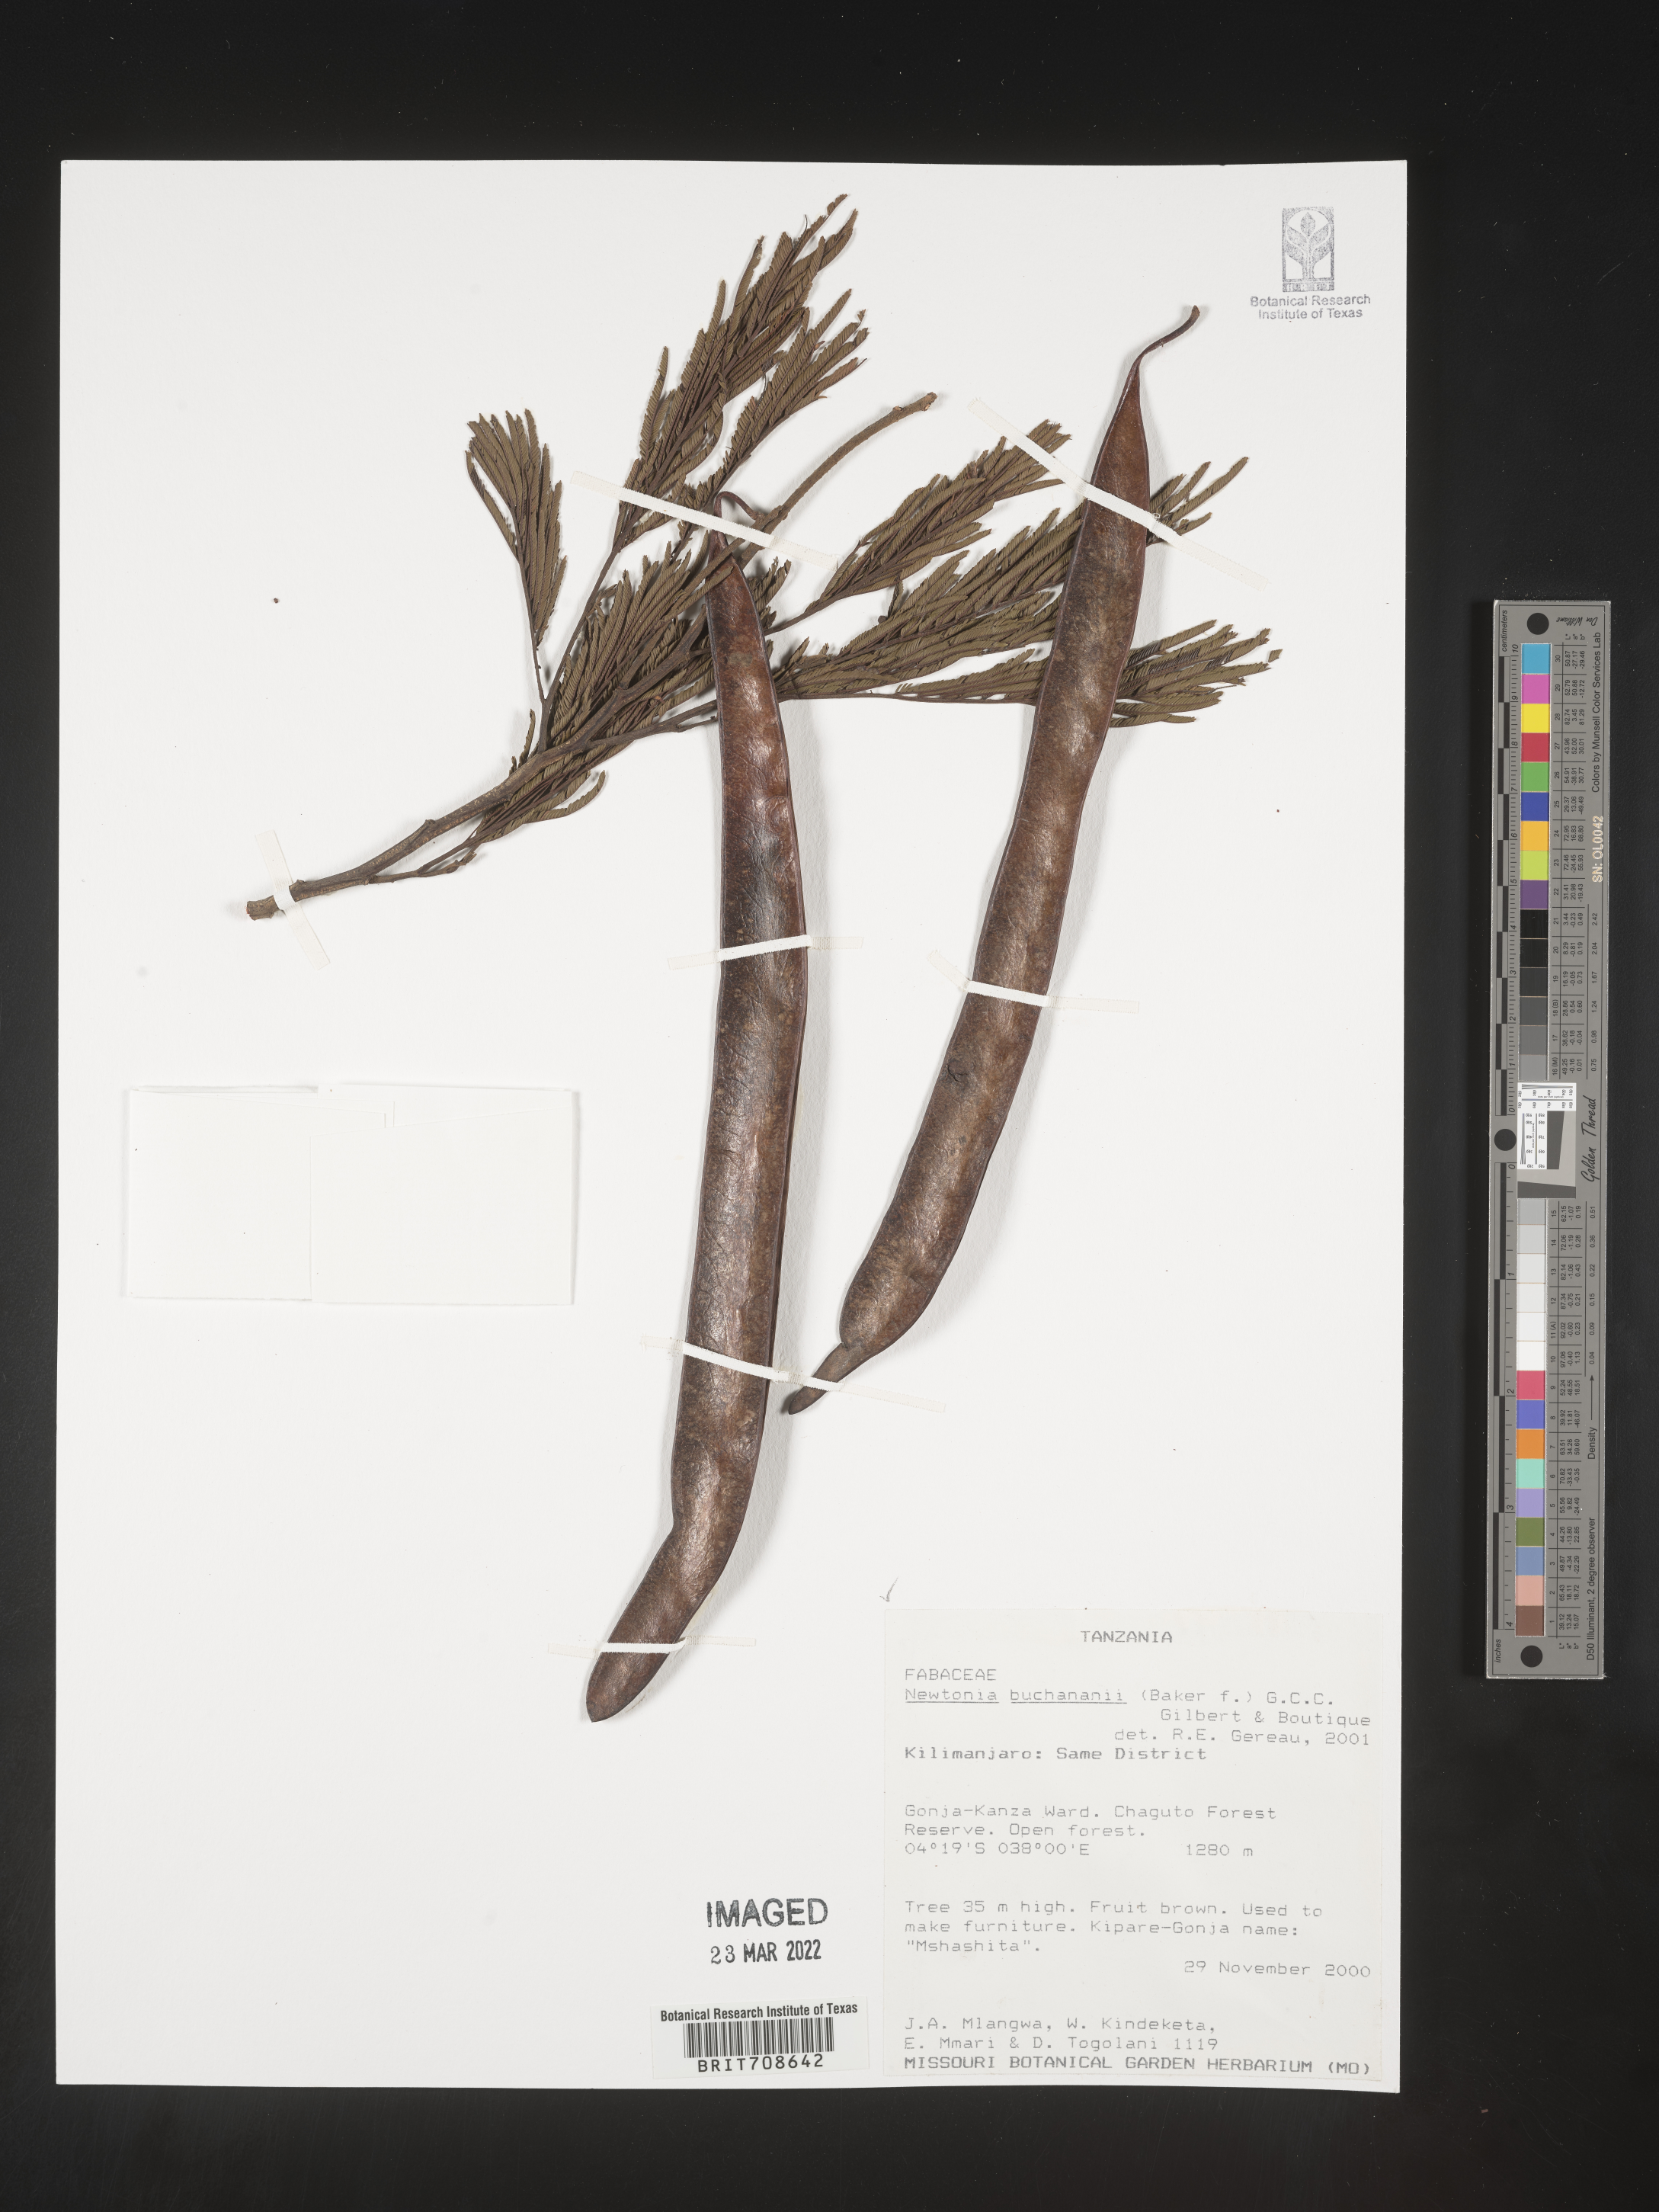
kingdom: Plantae
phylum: Tracheophyta
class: Magnoliopsida
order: Fabales
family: Fabaceae
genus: Newtonia
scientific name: Newtonia
